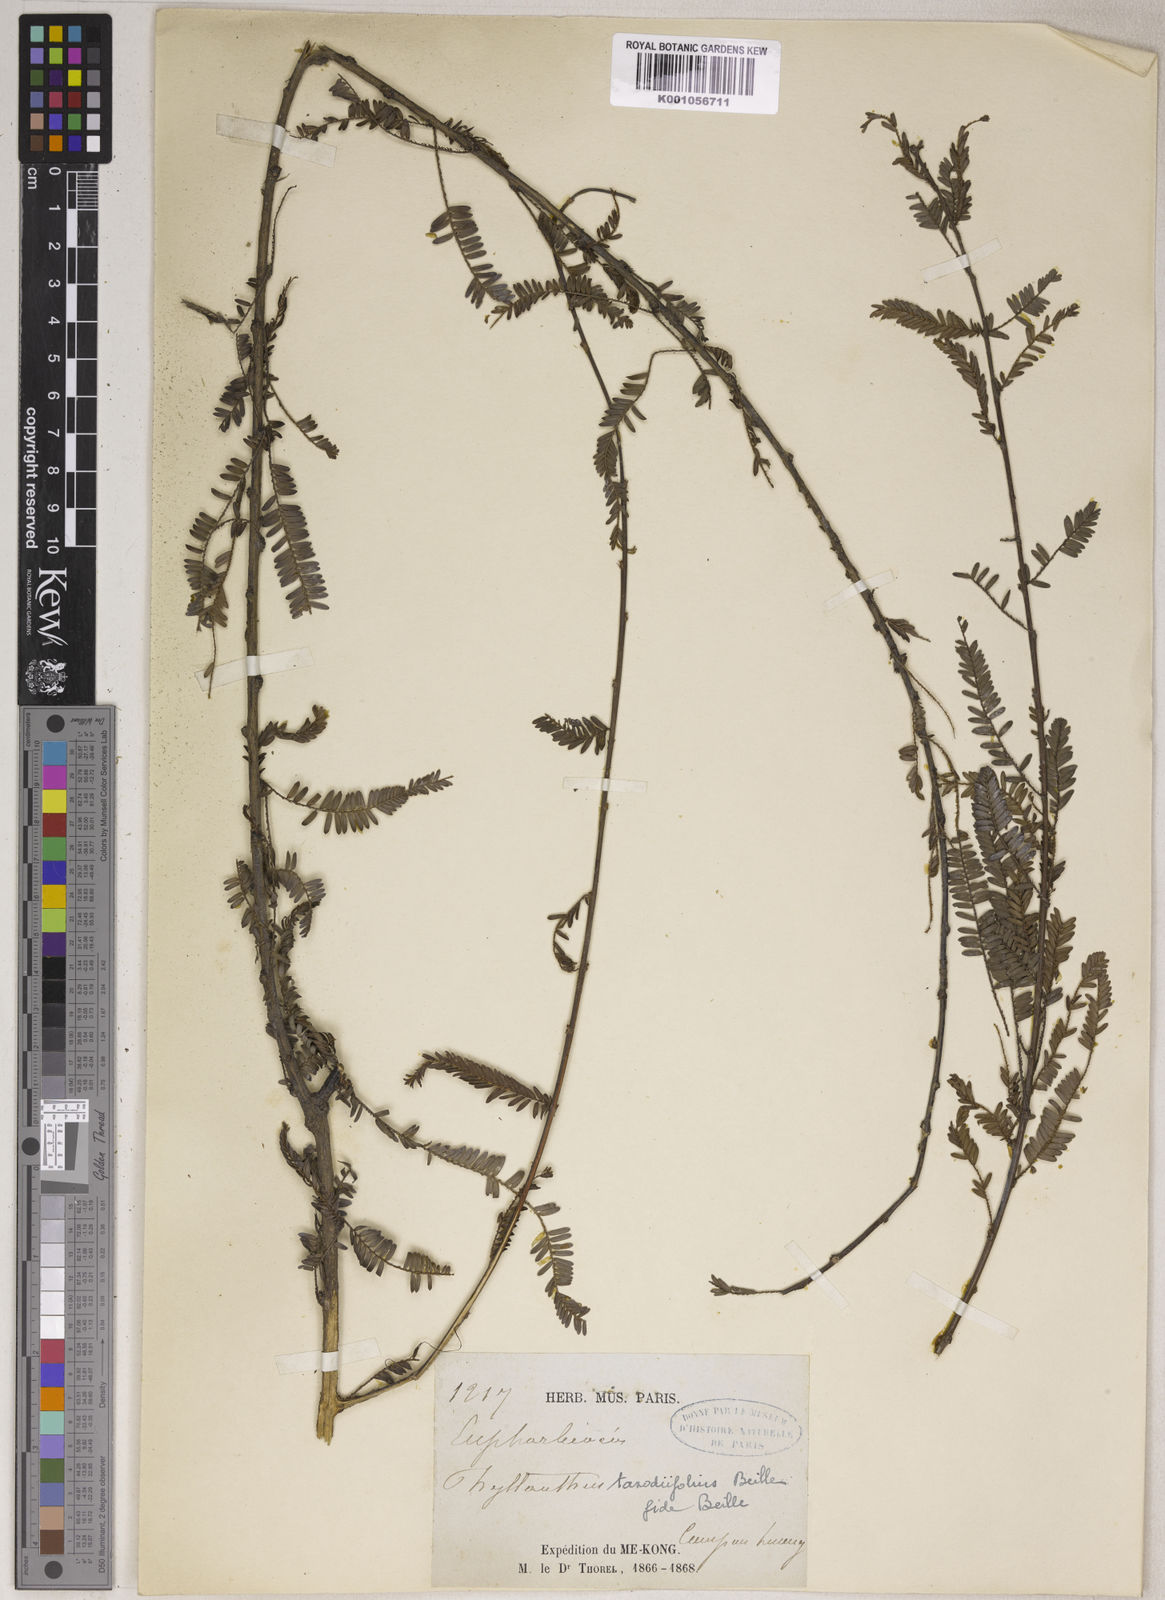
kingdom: Plantae
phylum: Tracheophyta
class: Magnoliopsida
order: Malpighiales
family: Phyllanthaceae
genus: Phyllanthus
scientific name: Phyllanthus taxodiifolius
